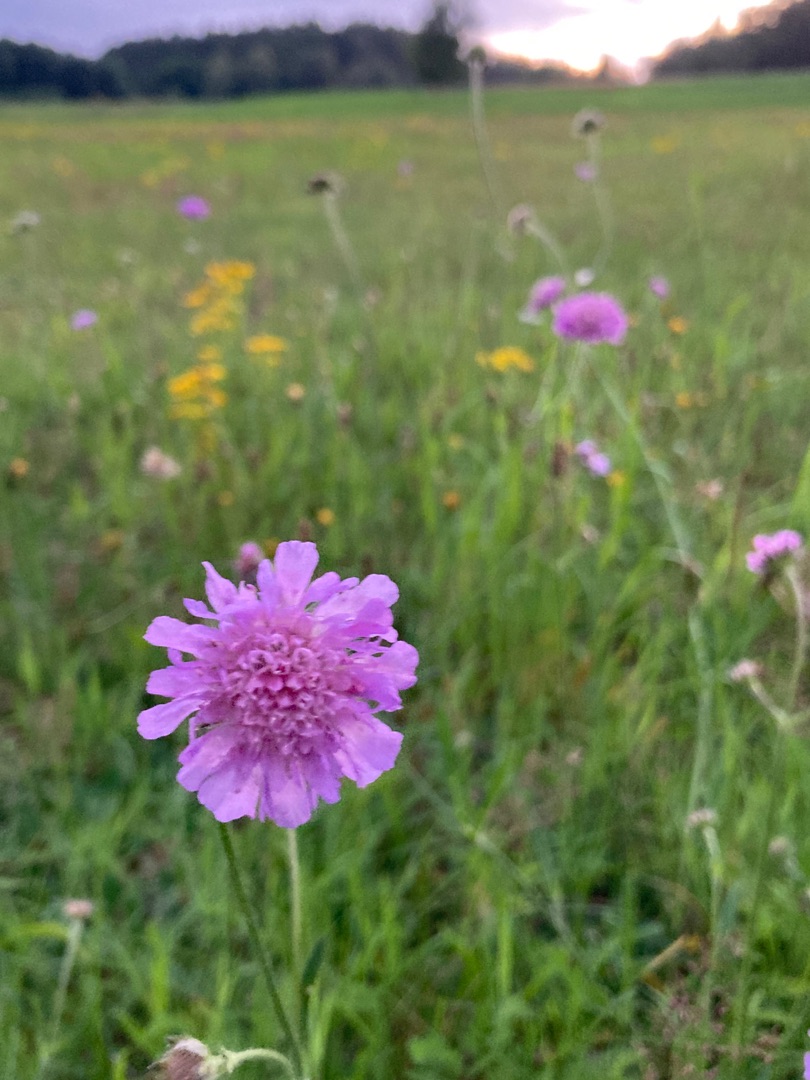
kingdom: Plantae
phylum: Tracheophyta
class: Magnoliopsida
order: Dipsacales
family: Caprifoliaceae
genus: Knautia
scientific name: Knautia arvensis
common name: Blåhat
